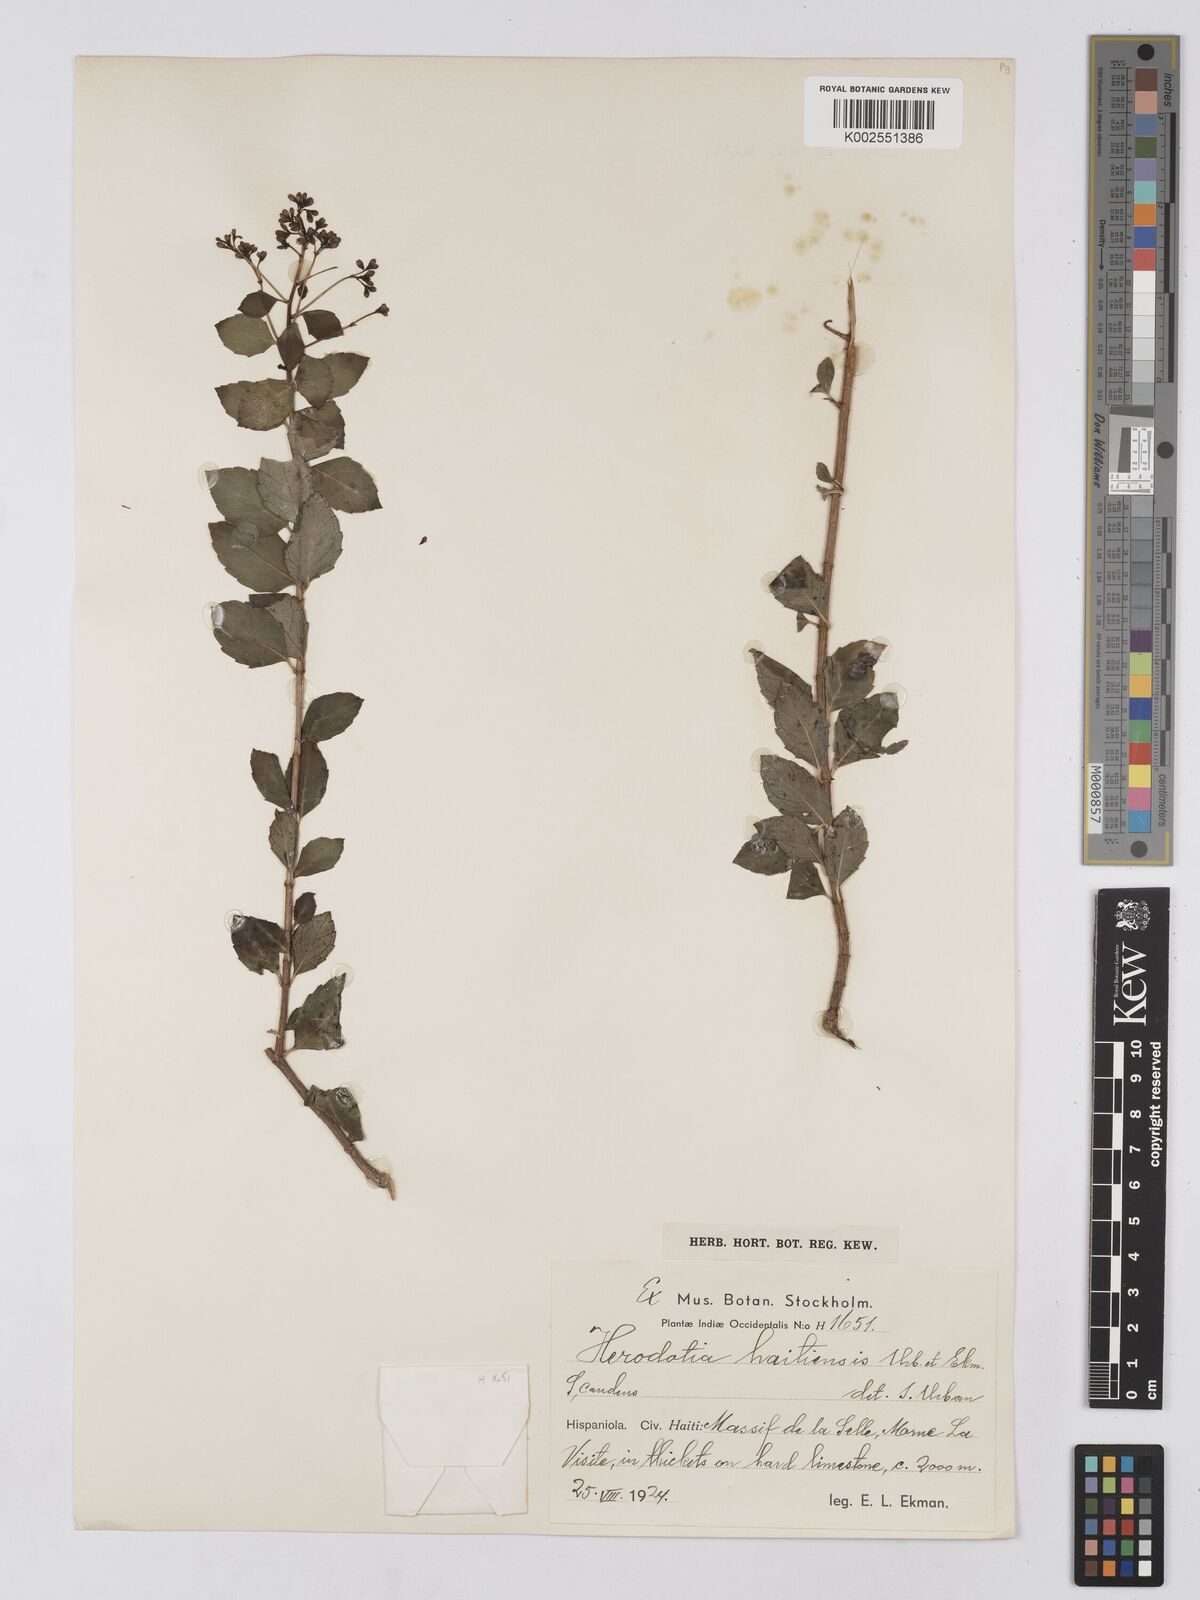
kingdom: Plantae
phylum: Tracheophyta
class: Magnoliopsida
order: Asterales
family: Asteraceae
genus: Herodotia
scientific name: Herodotia haitiensis
